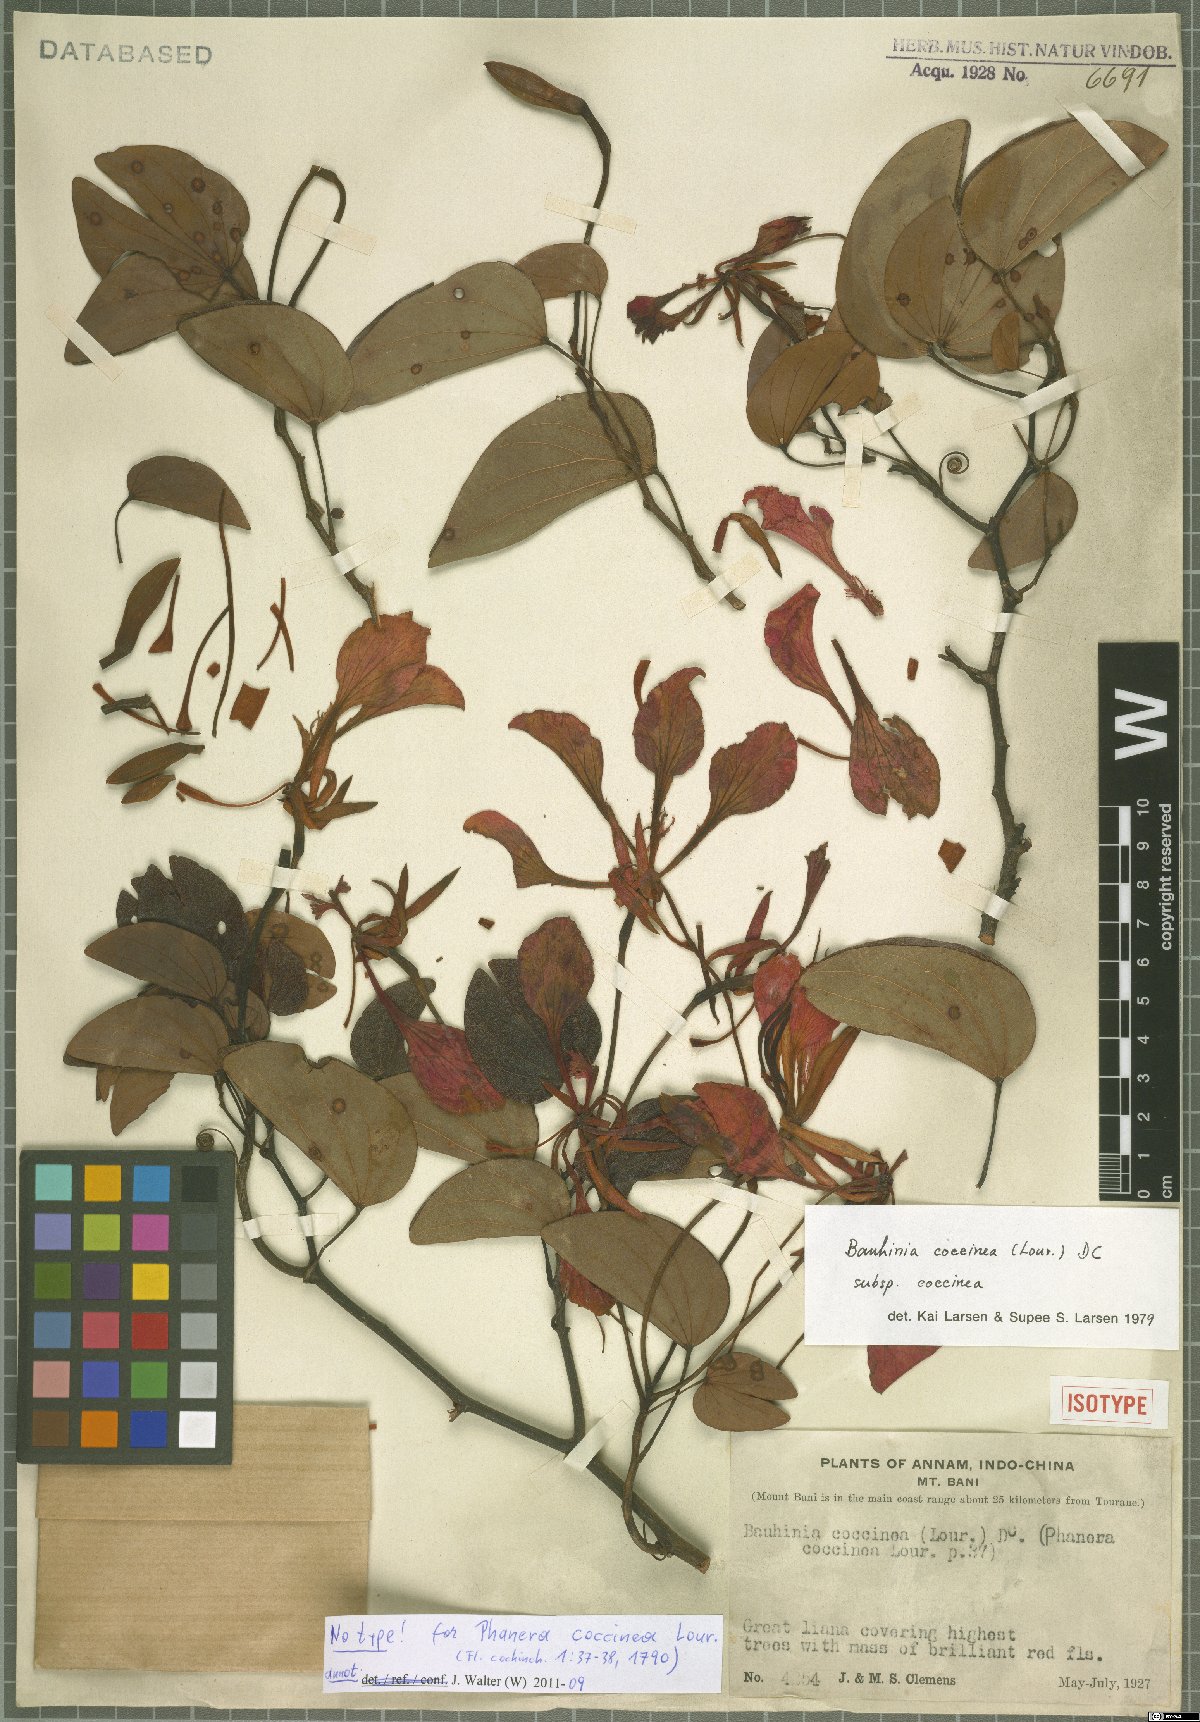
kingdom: Plantae
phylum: Tracheophyta
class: Magnoliopsida
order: Fabales
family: Fabaceae
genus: Phanera
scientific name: Phanera coccinea
